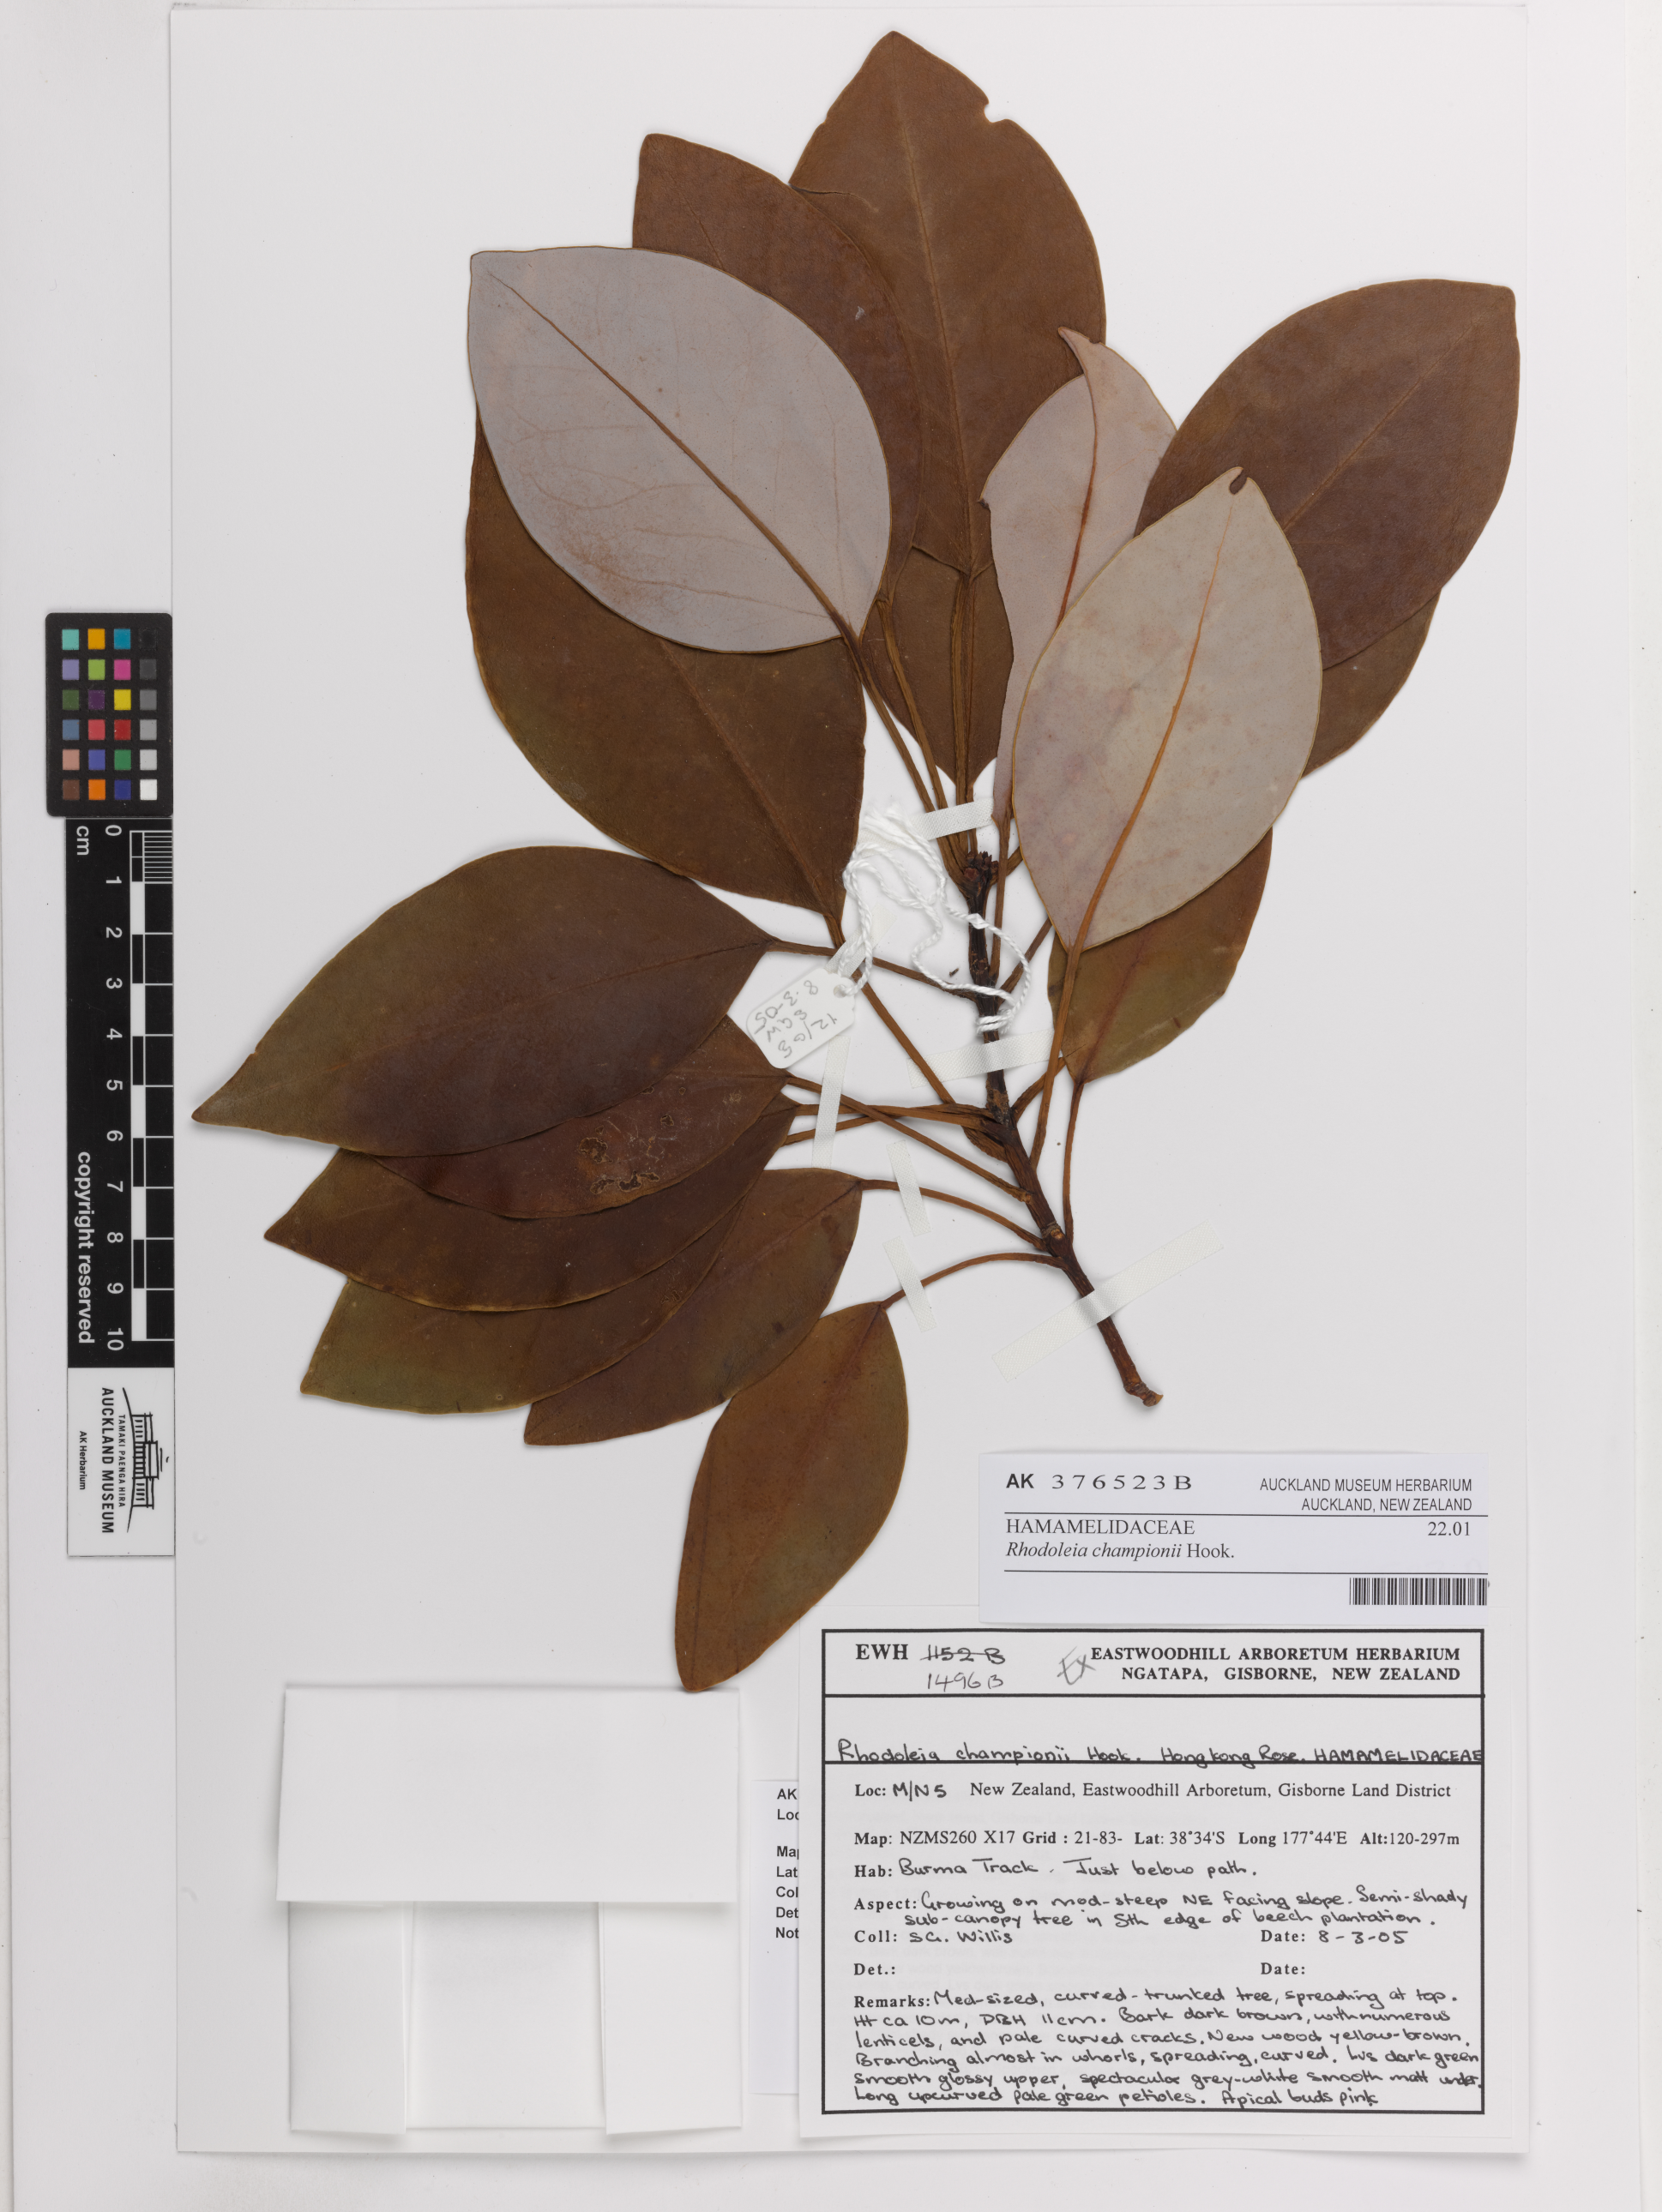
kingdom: Plantae
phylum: Tracheophyta
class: Magnoliopsida
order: Saxifragales
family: Hamamelidaceae
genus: Rhodoleia
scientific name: Rhodoleia championii
